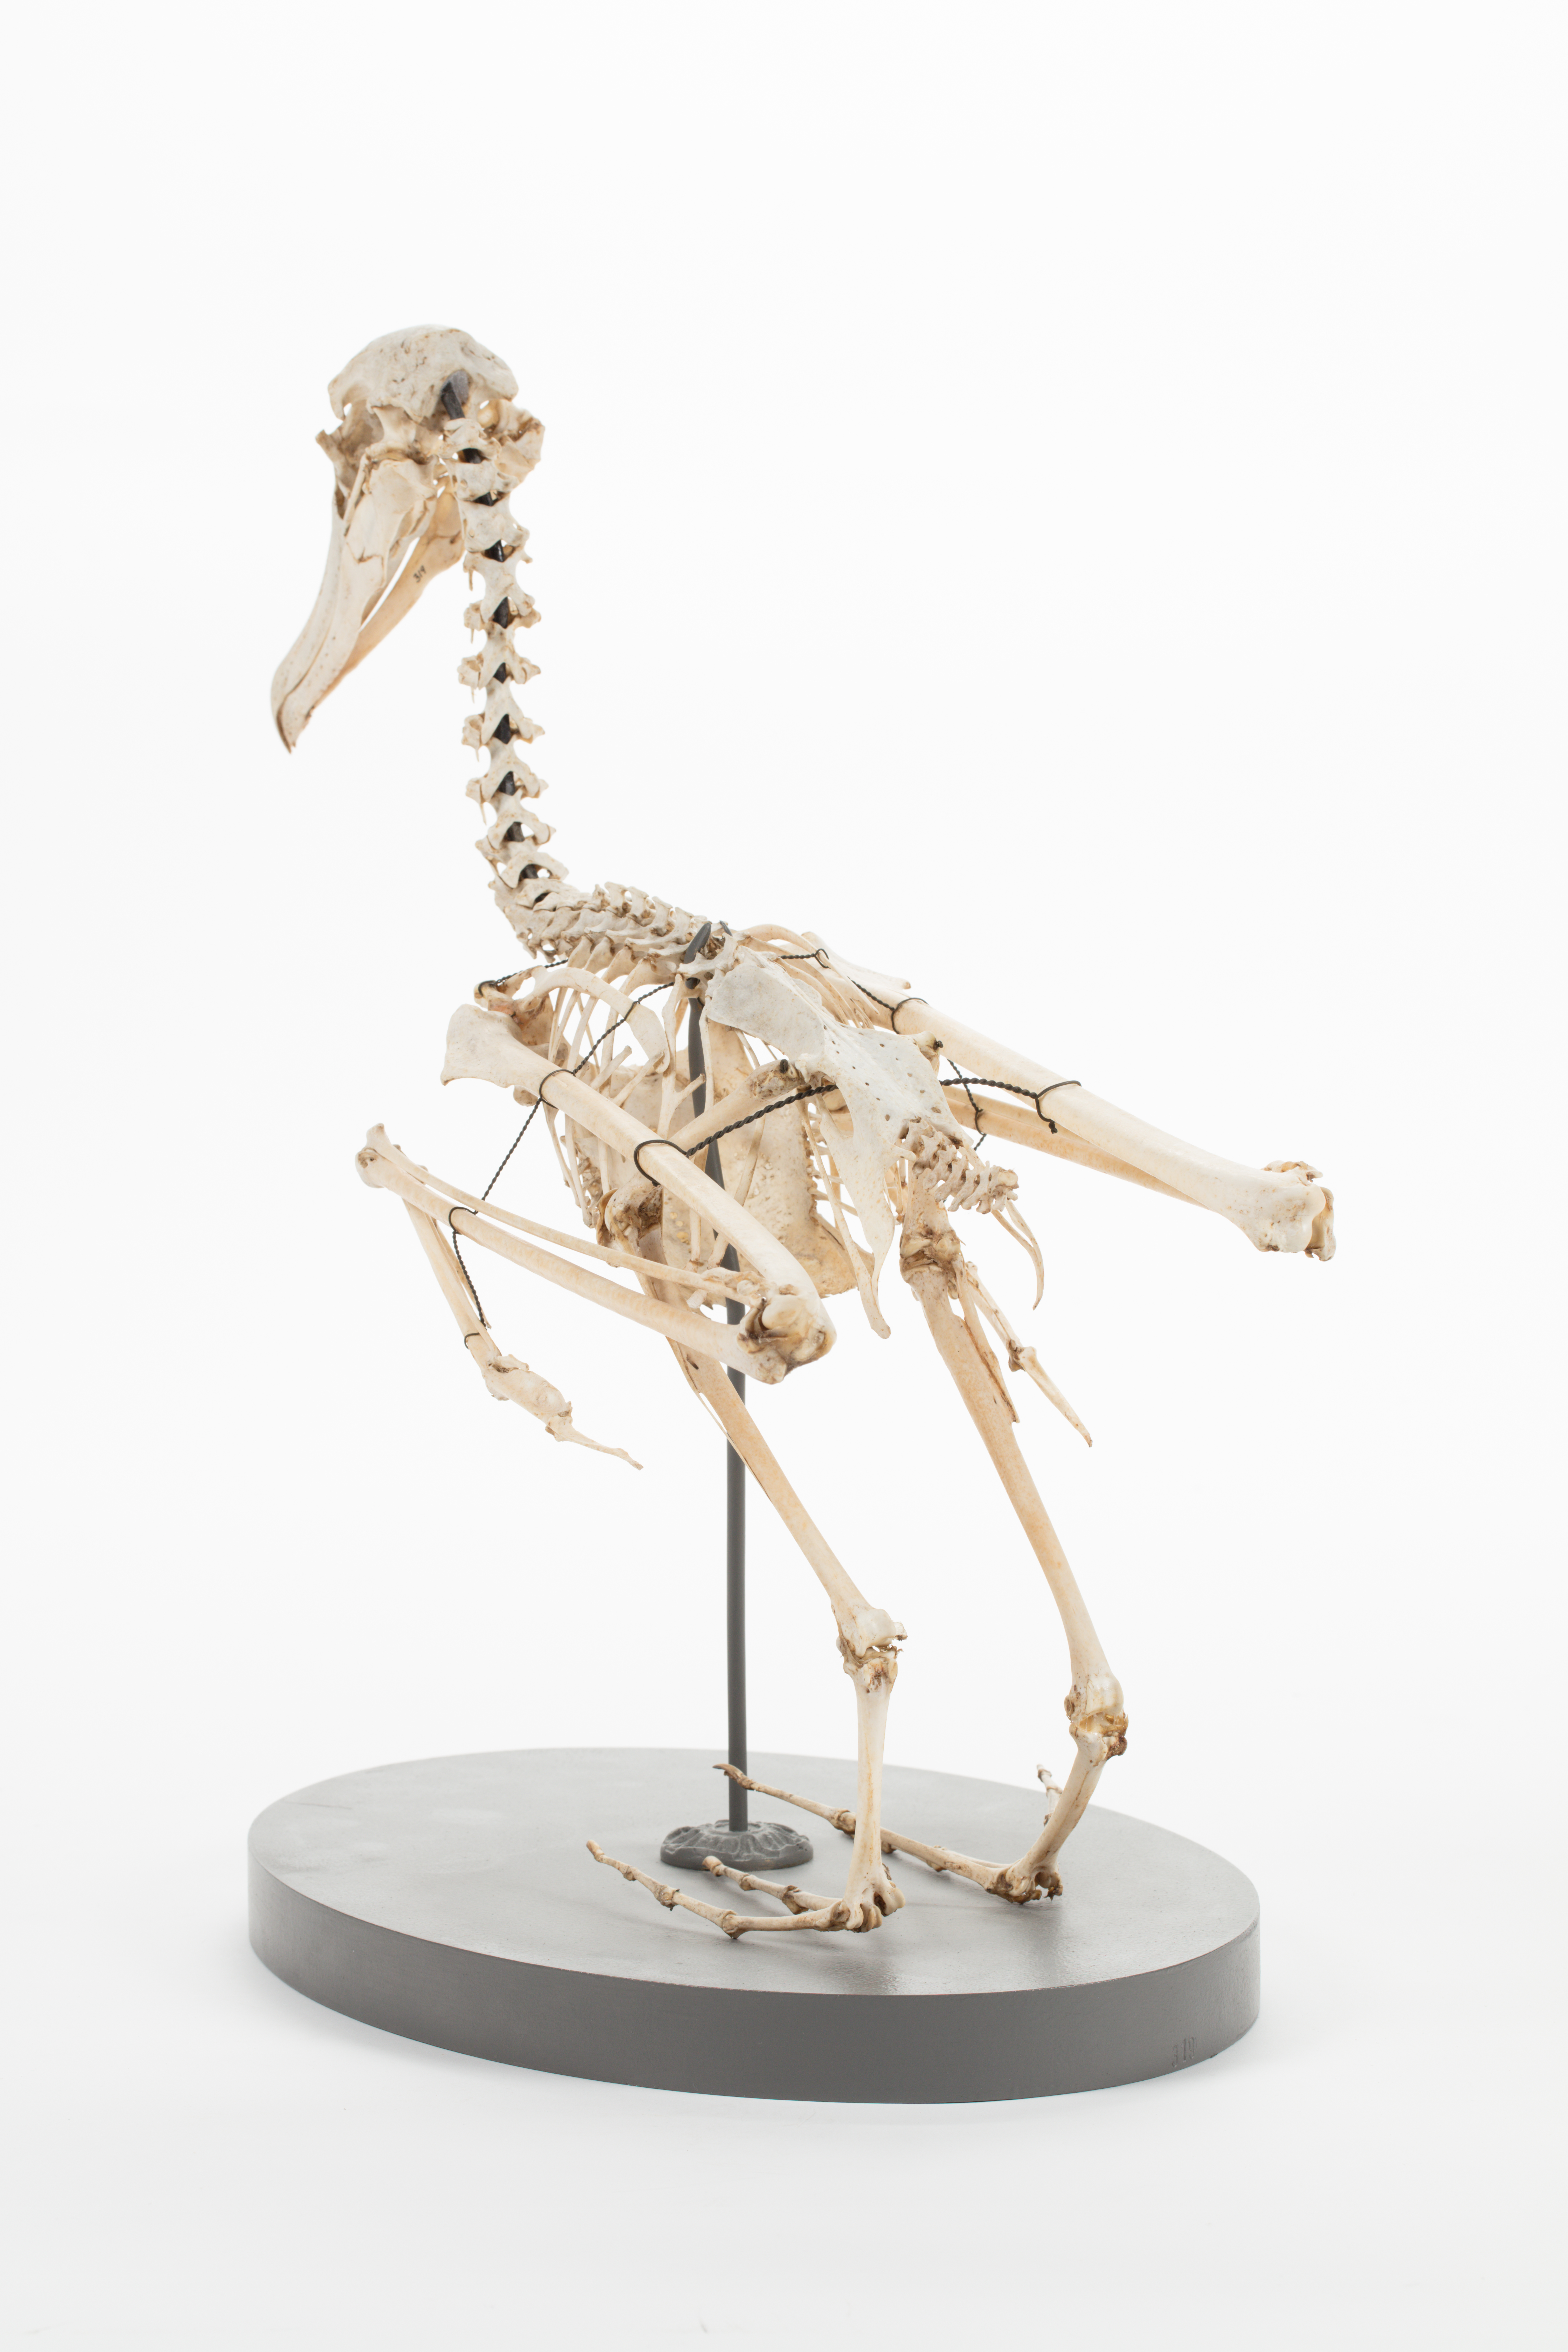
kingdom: Animalia
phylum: Chordata
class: Aves
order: Procellariiformes
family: Diomedeidae
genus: Thalassarche
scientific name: Thalassarche melanophris
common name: Black-browed albatross
